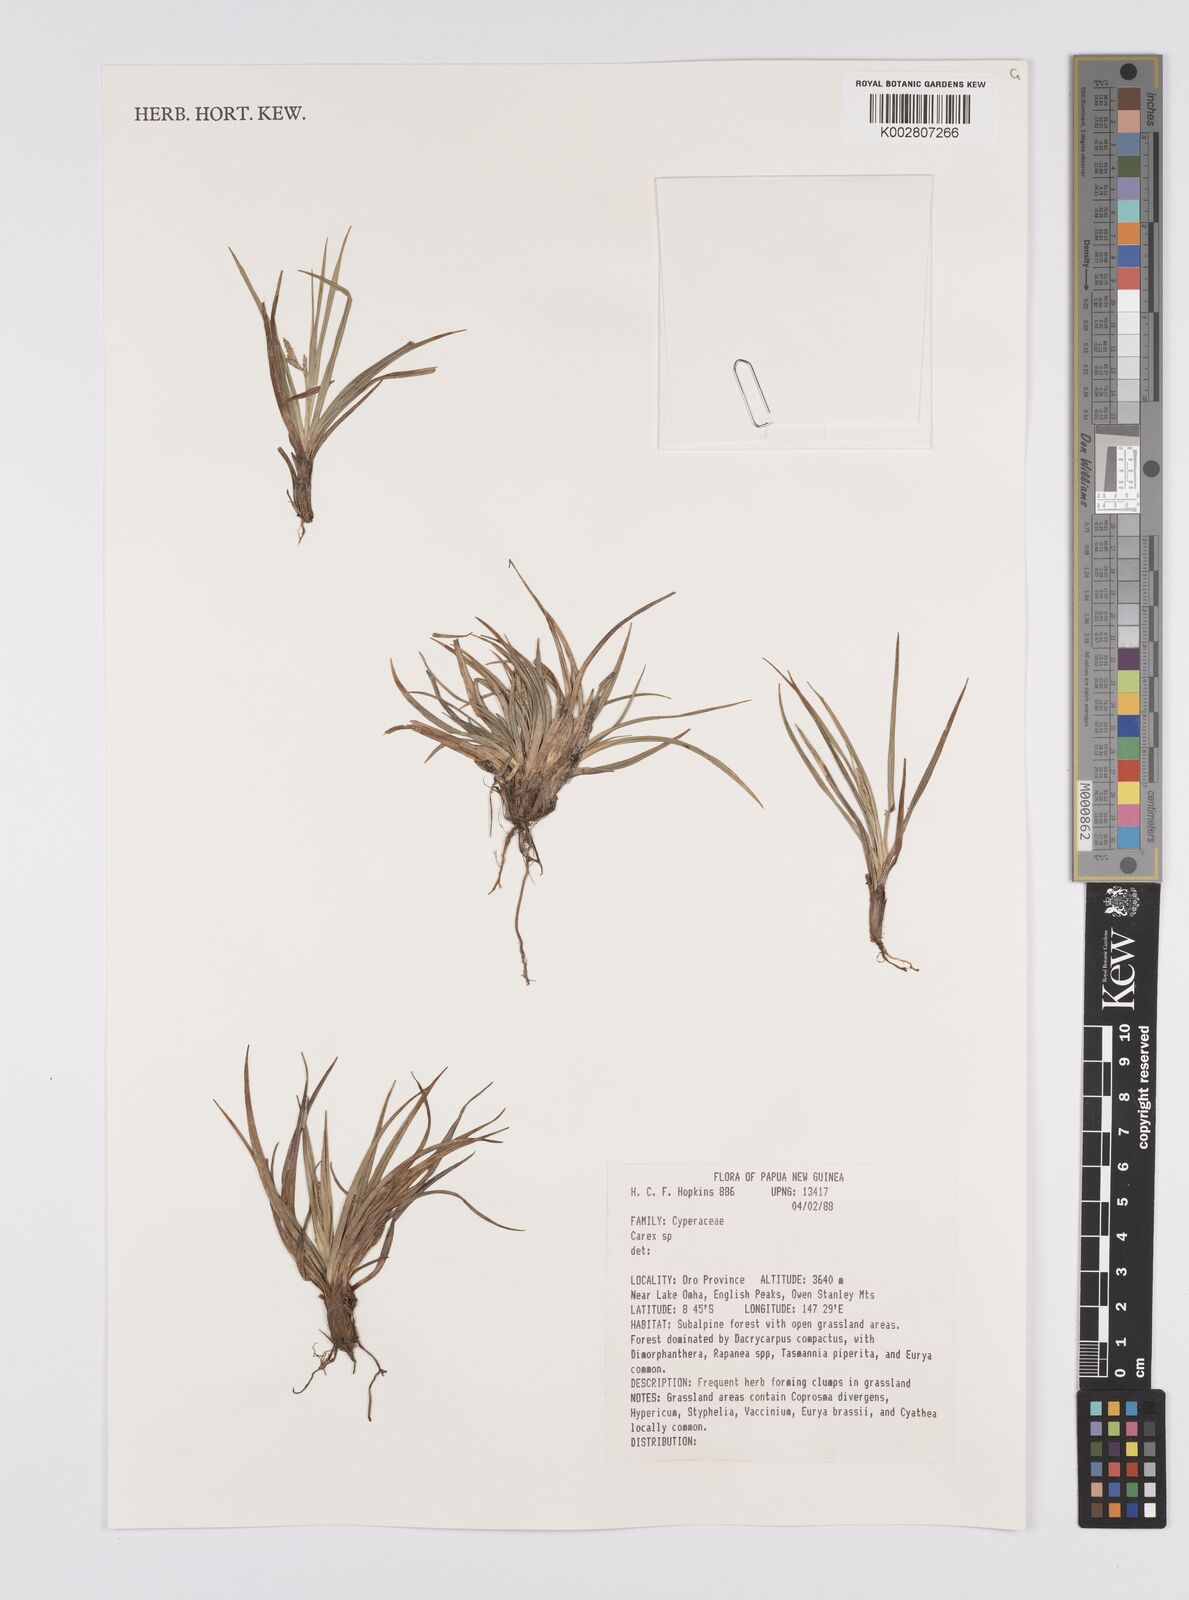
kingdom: Plantae
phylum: Tracheophyta
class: Liliopsida
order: Poales
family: Cyperaceae
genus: Carex
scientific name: Carex
